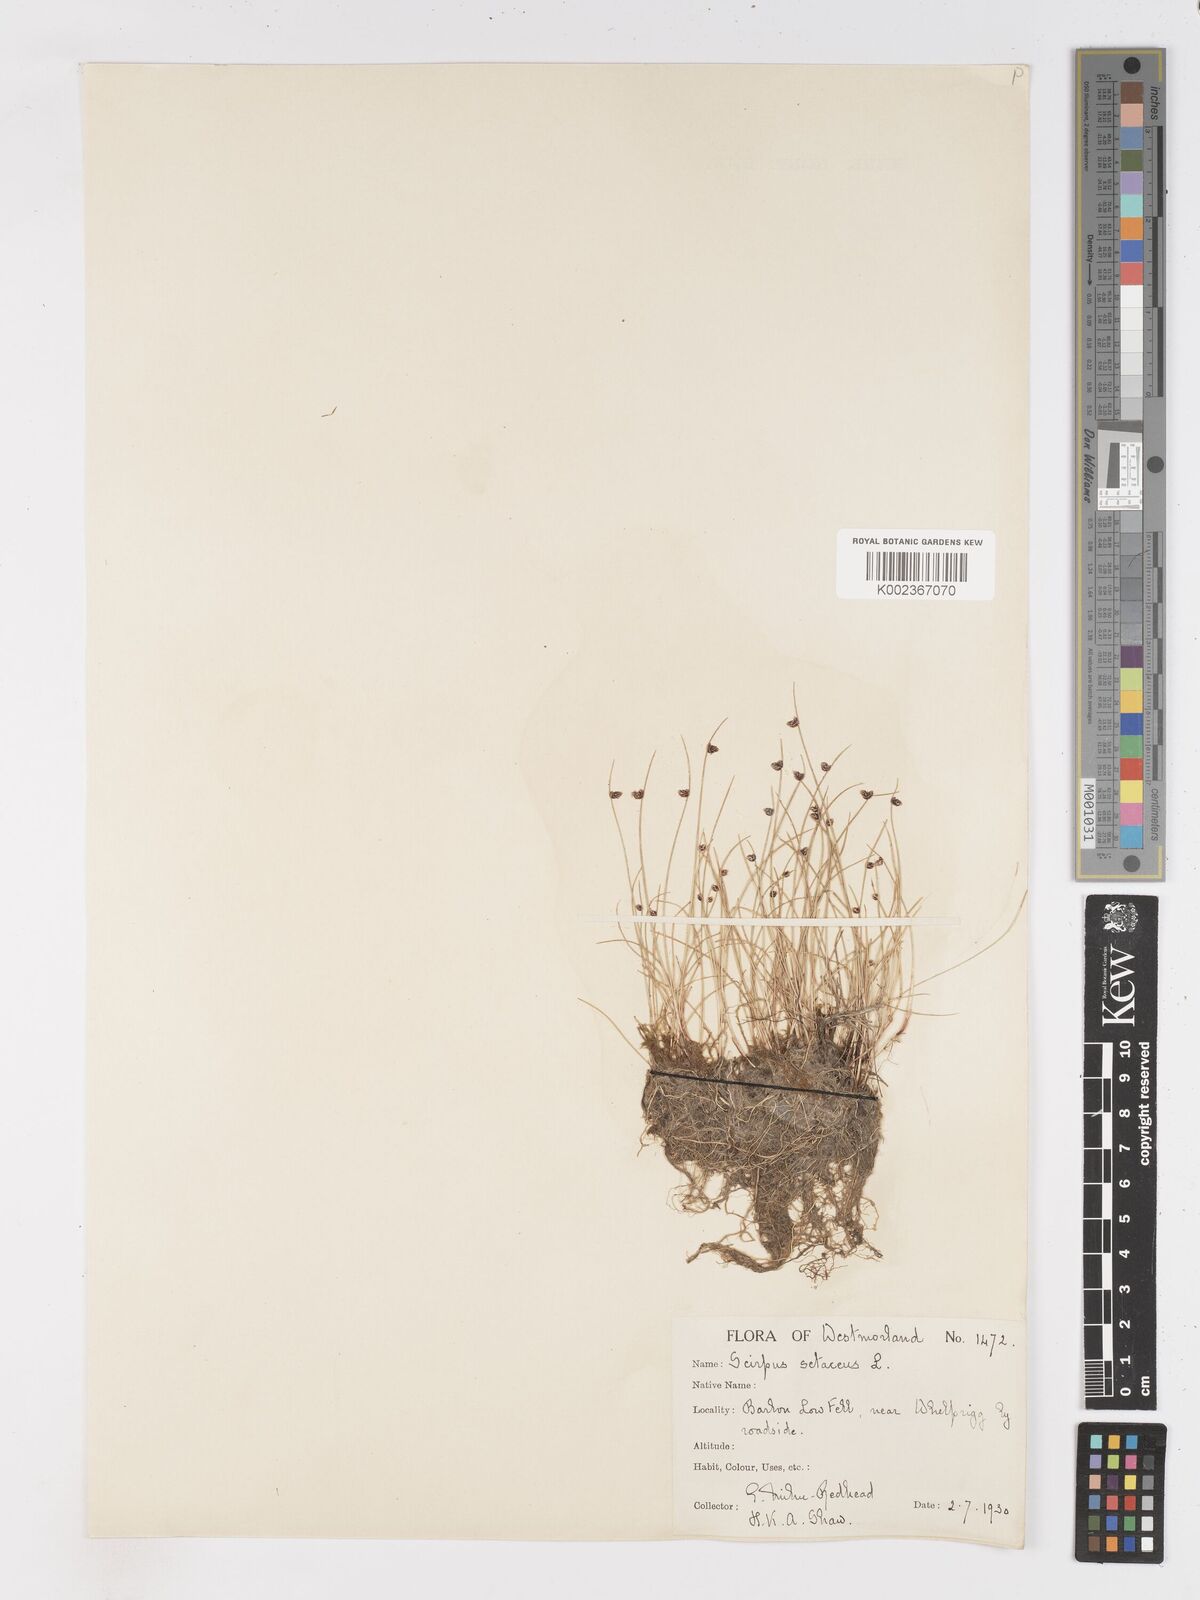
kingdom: Plantae
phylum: Tracheophyta
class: Liliopsida
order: Poales
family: Cyperaceae
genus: Isolepis
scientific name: Isolepis setacea
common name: Bristle club-rush
